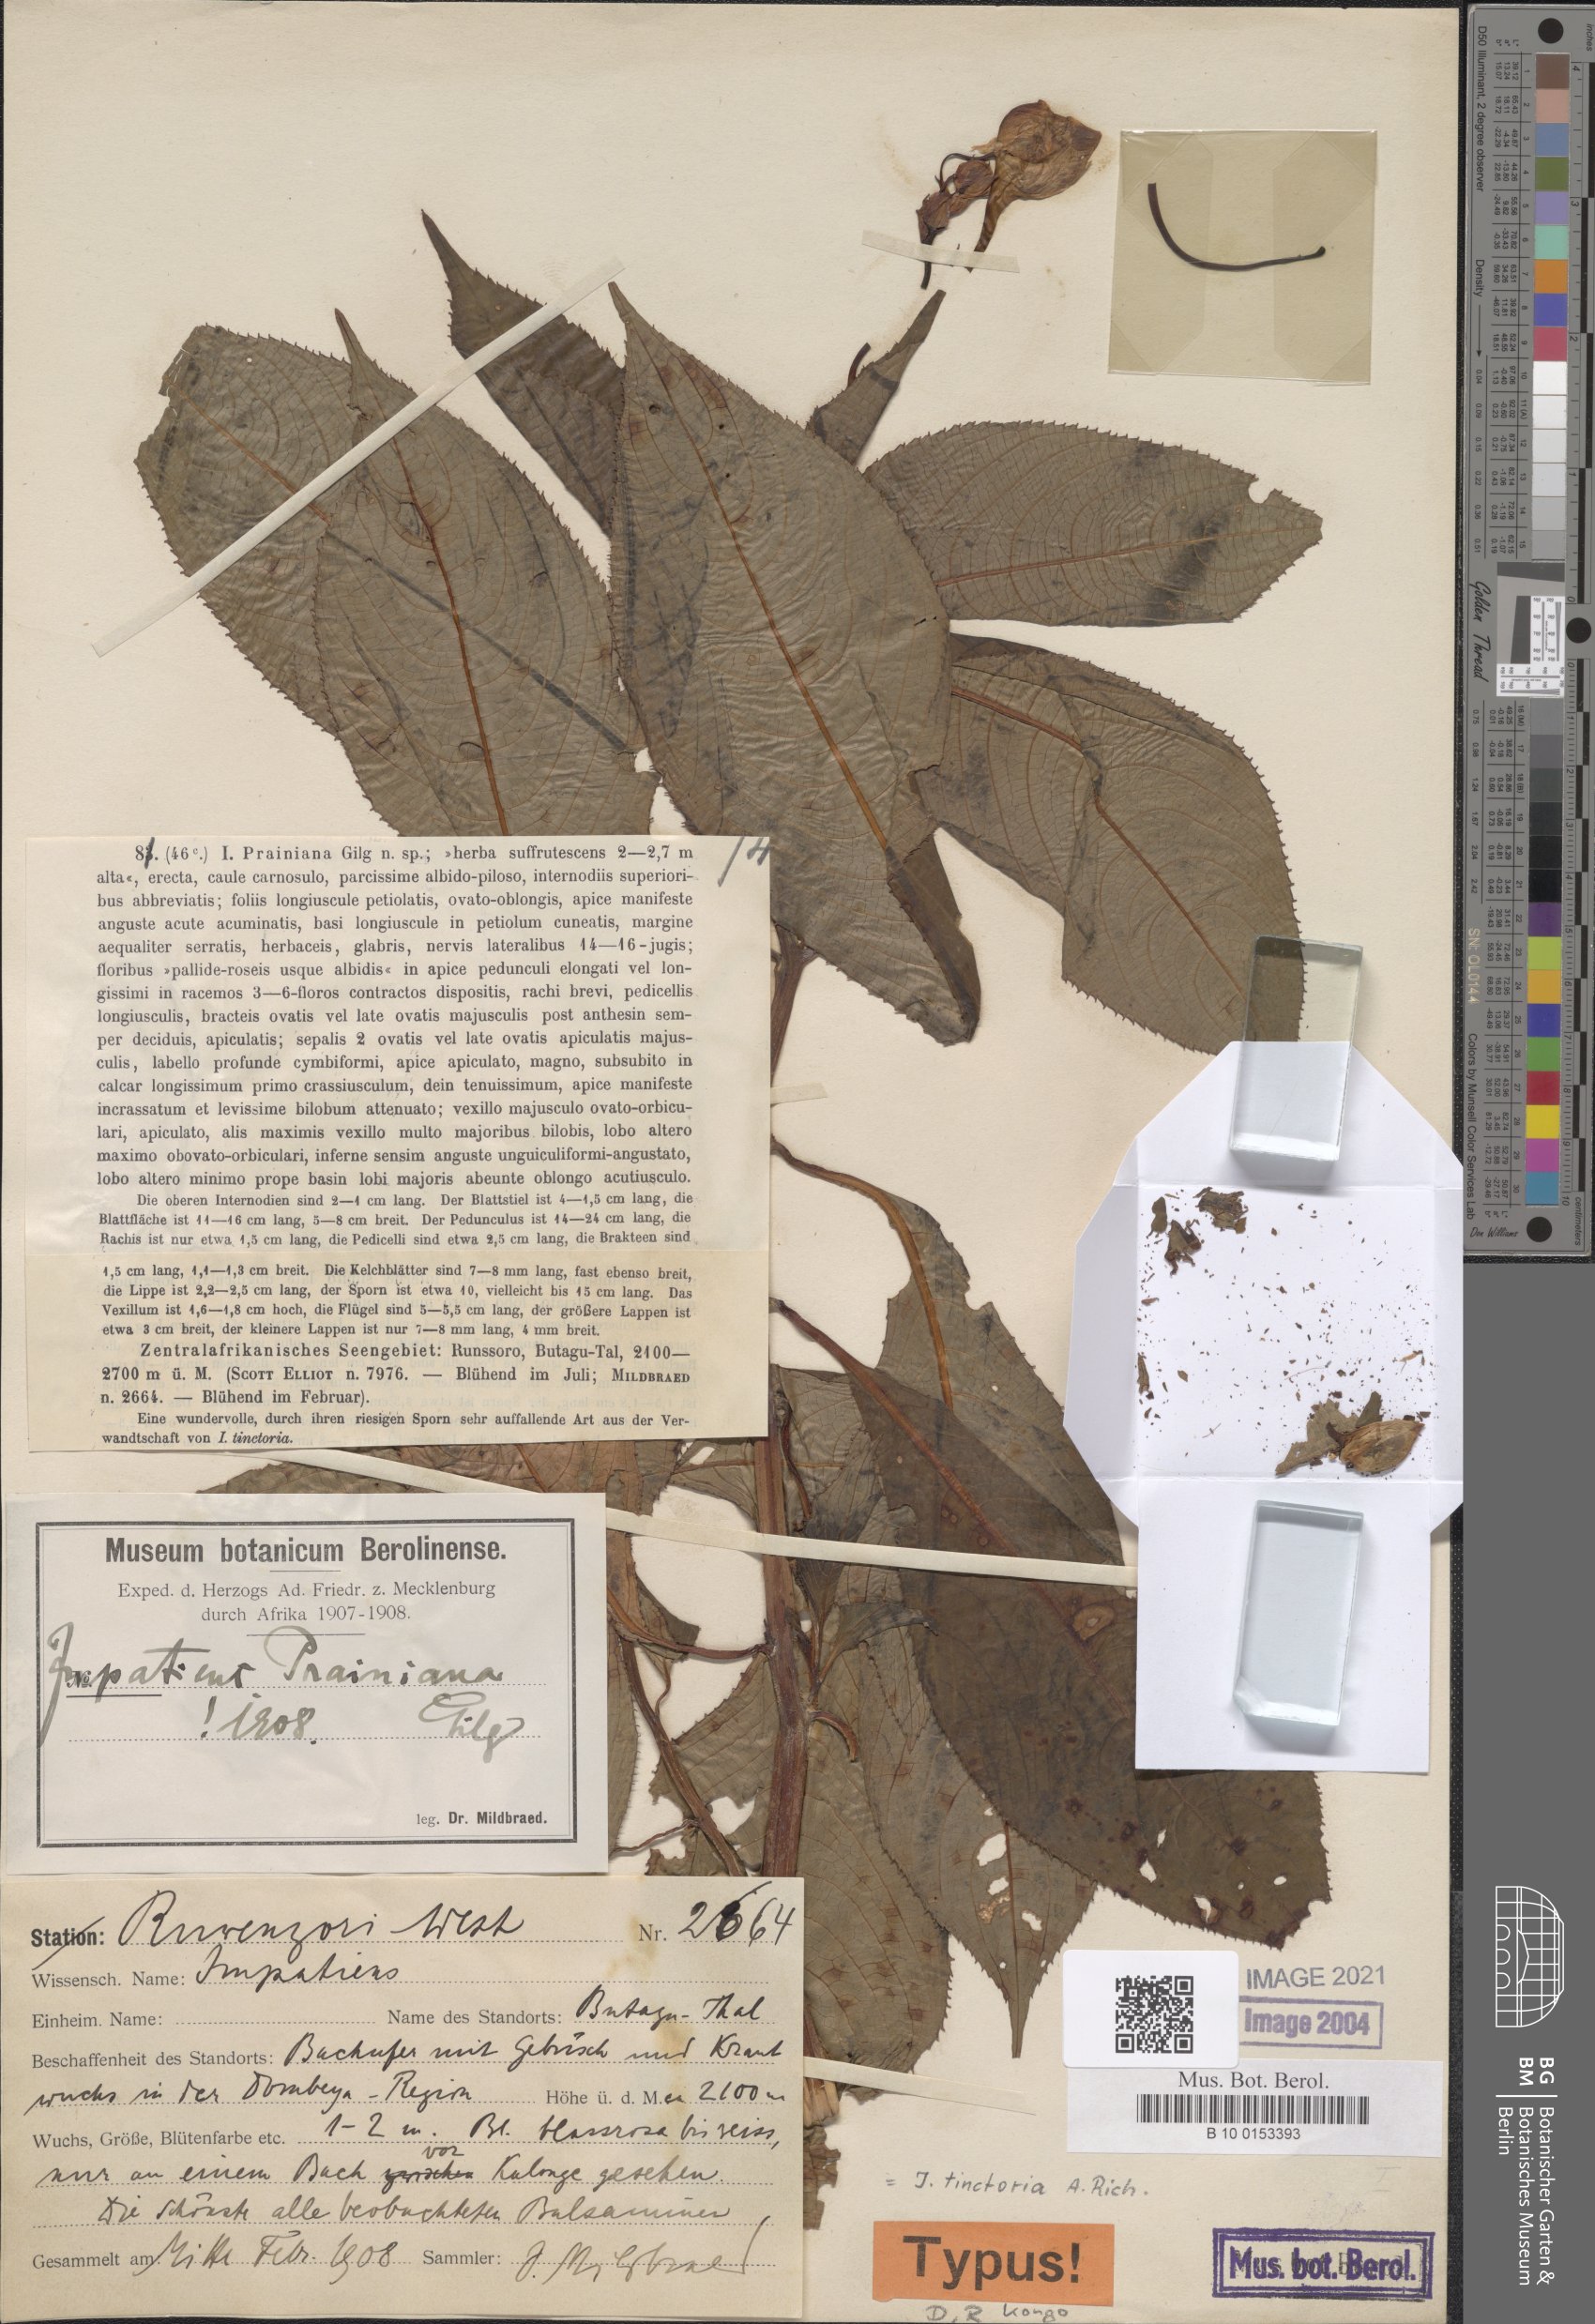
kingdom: Plantae
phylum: Tracheophyta
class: Magnoliopsida
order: Ericales
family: Balsaminaceae
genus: Impatiens
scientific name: Impatiens tinctoria
